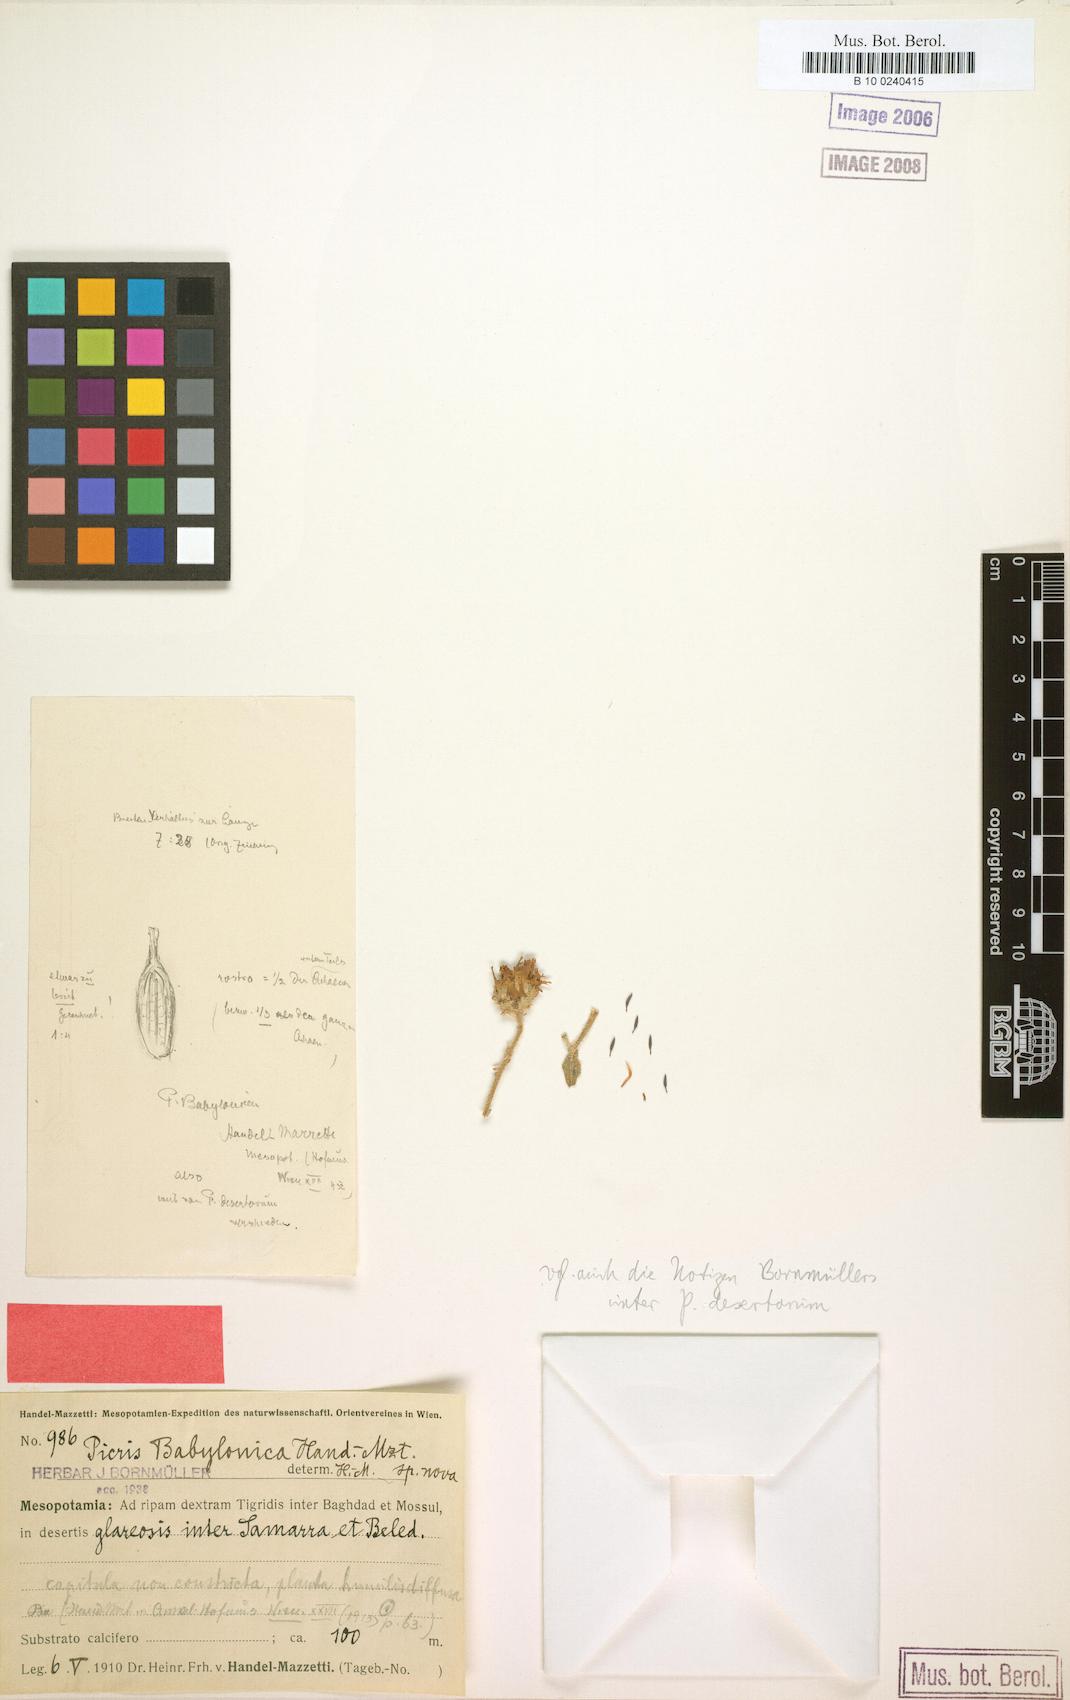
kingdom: Plantae
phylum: Tracheophyta
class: Magnoliopsida
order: Asterales
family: Asteraceae
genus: Picris
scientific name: Picris babylonica
